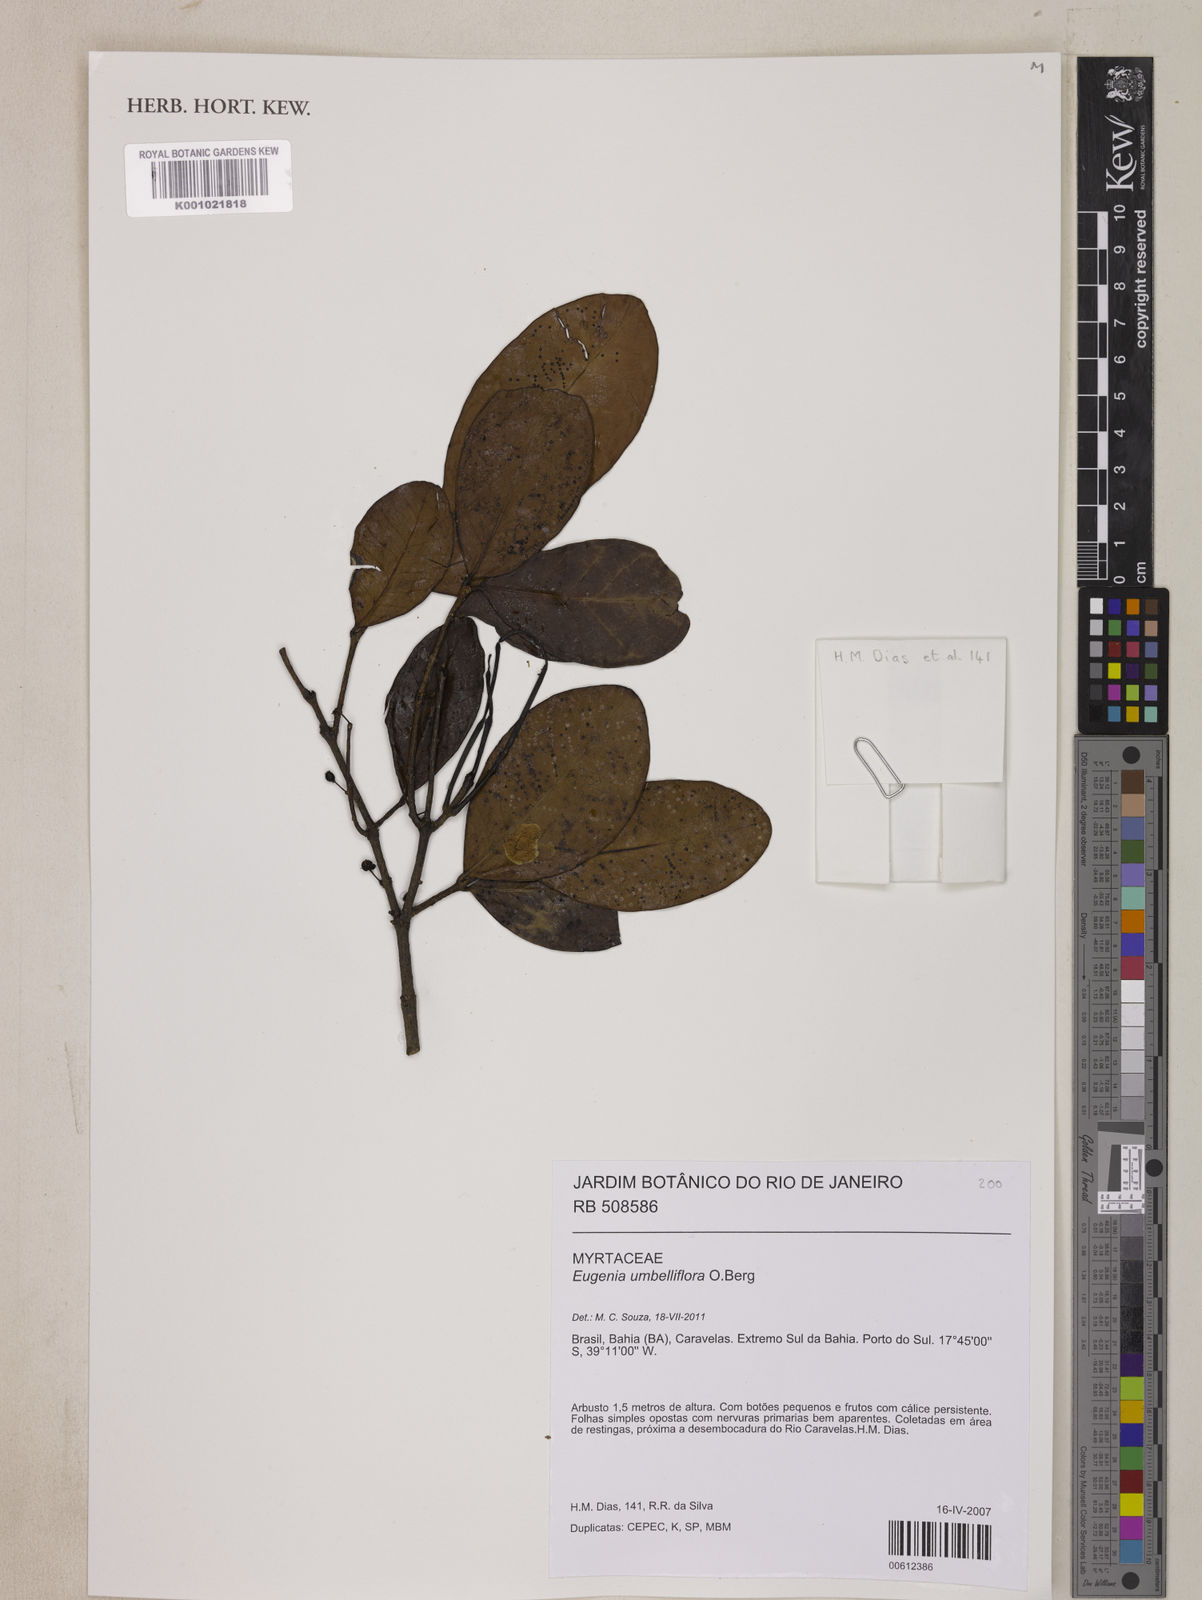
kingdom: Plantae
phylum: Tracheophyta
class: Magnoliopsida
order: Myrtales
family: Myrtaceae
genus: Eugenia
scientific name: Eugenia astringens
